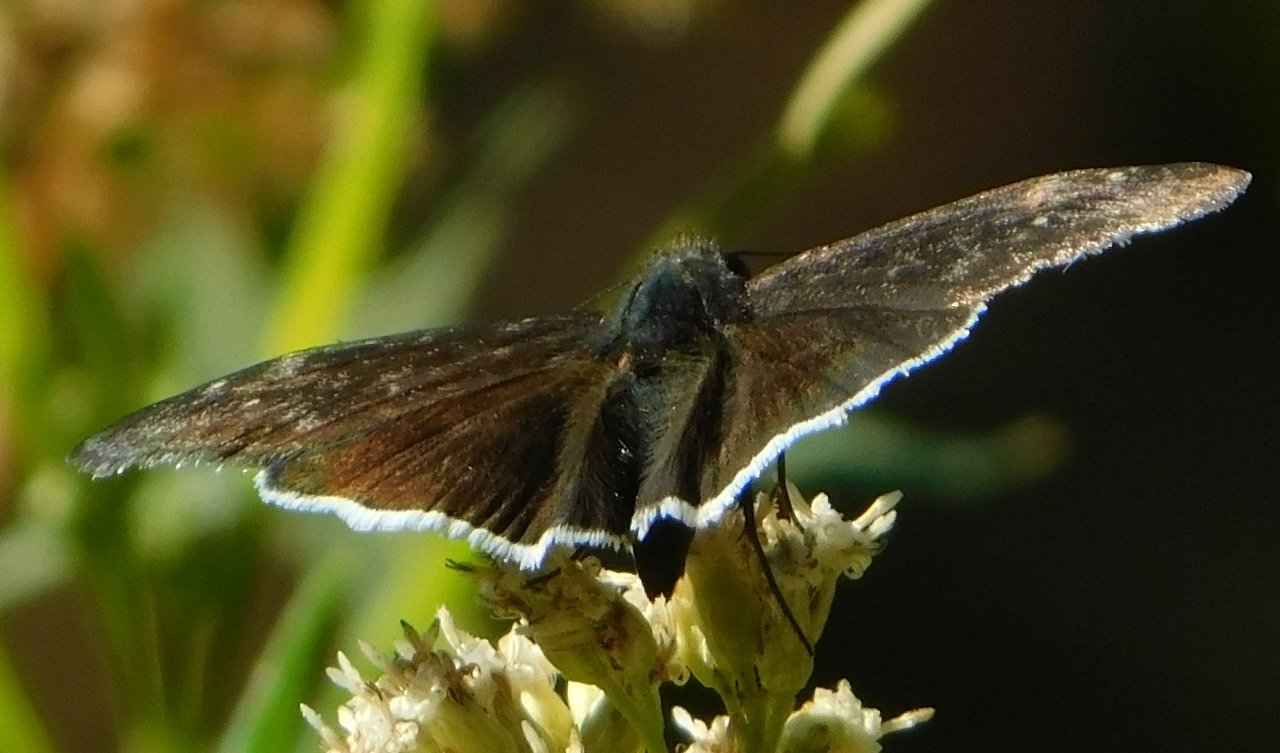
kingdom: Animalia
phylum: Arthropoda
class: Insecta
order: Lepidoptera
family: Hesperiidae
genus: Erynnis
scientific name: Erynnis funeralis
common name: Funereal Duskywing
